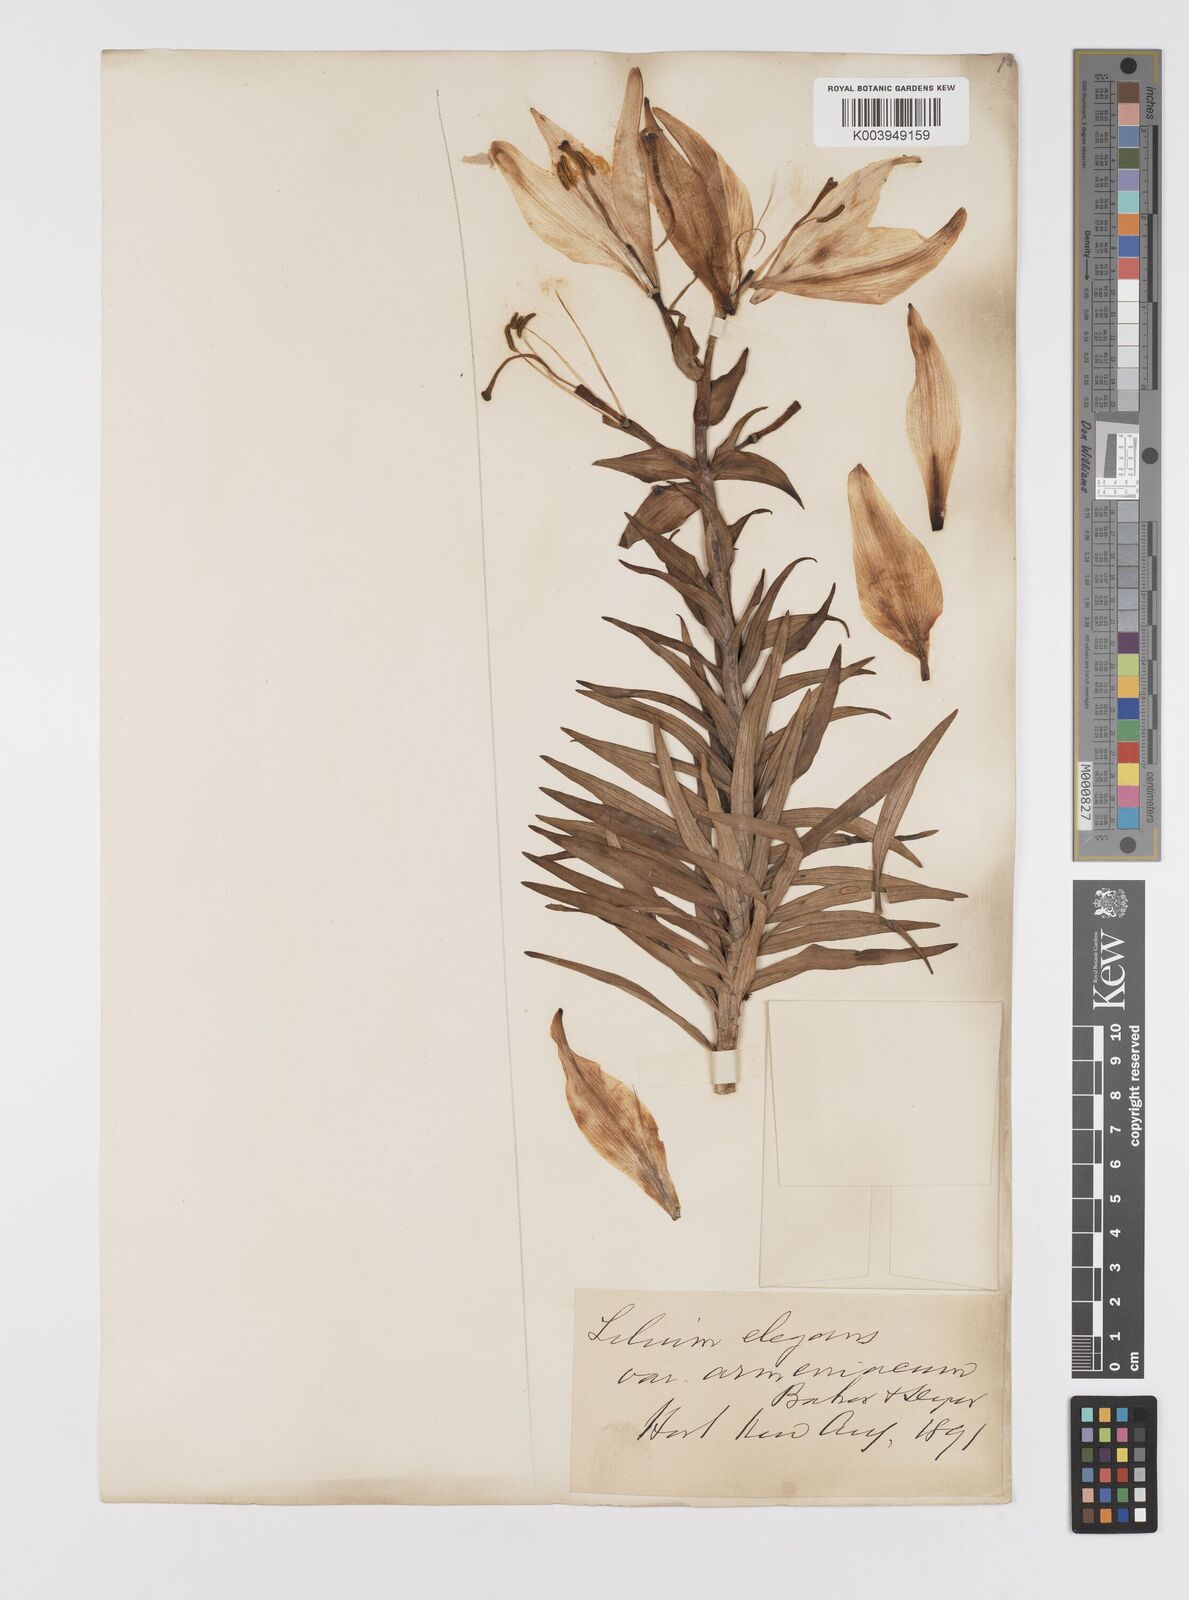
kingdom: Plantae
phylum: Tracheophyta
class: Liliopsida
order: Liliales
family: Liliaceae
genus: Lilium
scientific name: Lilium pensylvanicum
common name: Candlestick lily
